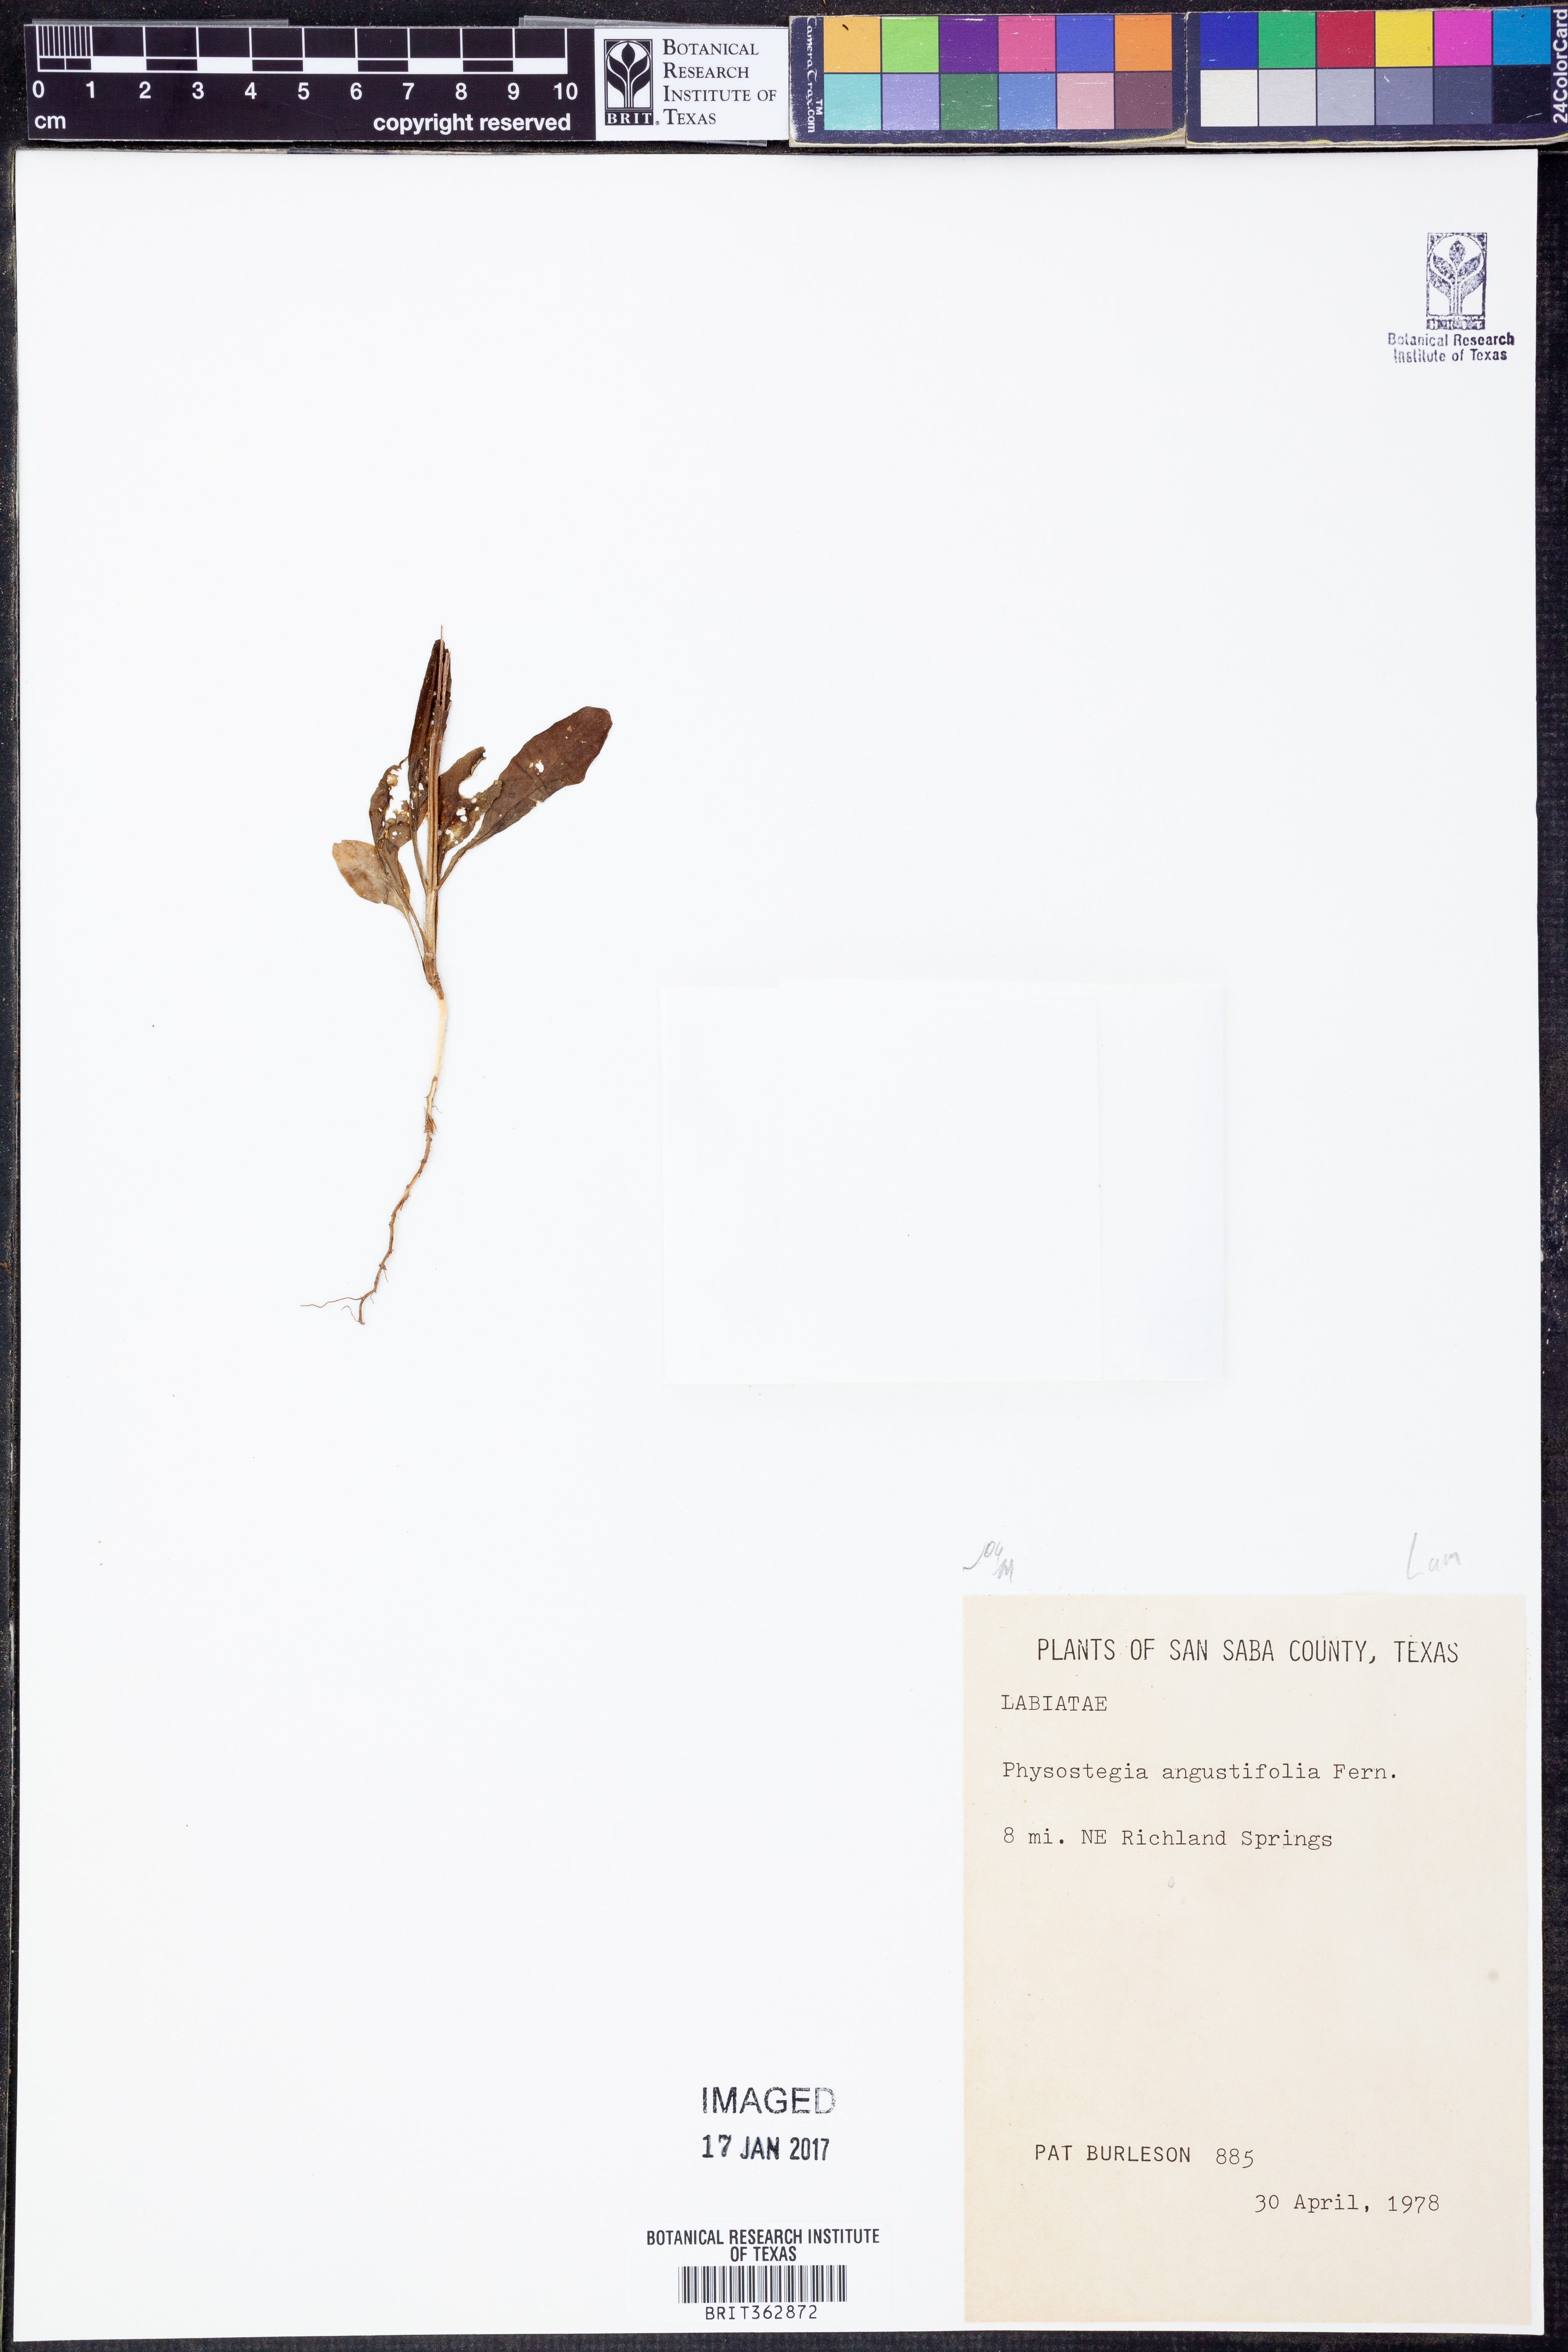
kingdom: Plantae
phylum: Tracheophyta
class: Magnoliopsida
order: Lamiales
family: Lamiaceae
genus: Physostegia
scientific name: Physostegia angustifolia
